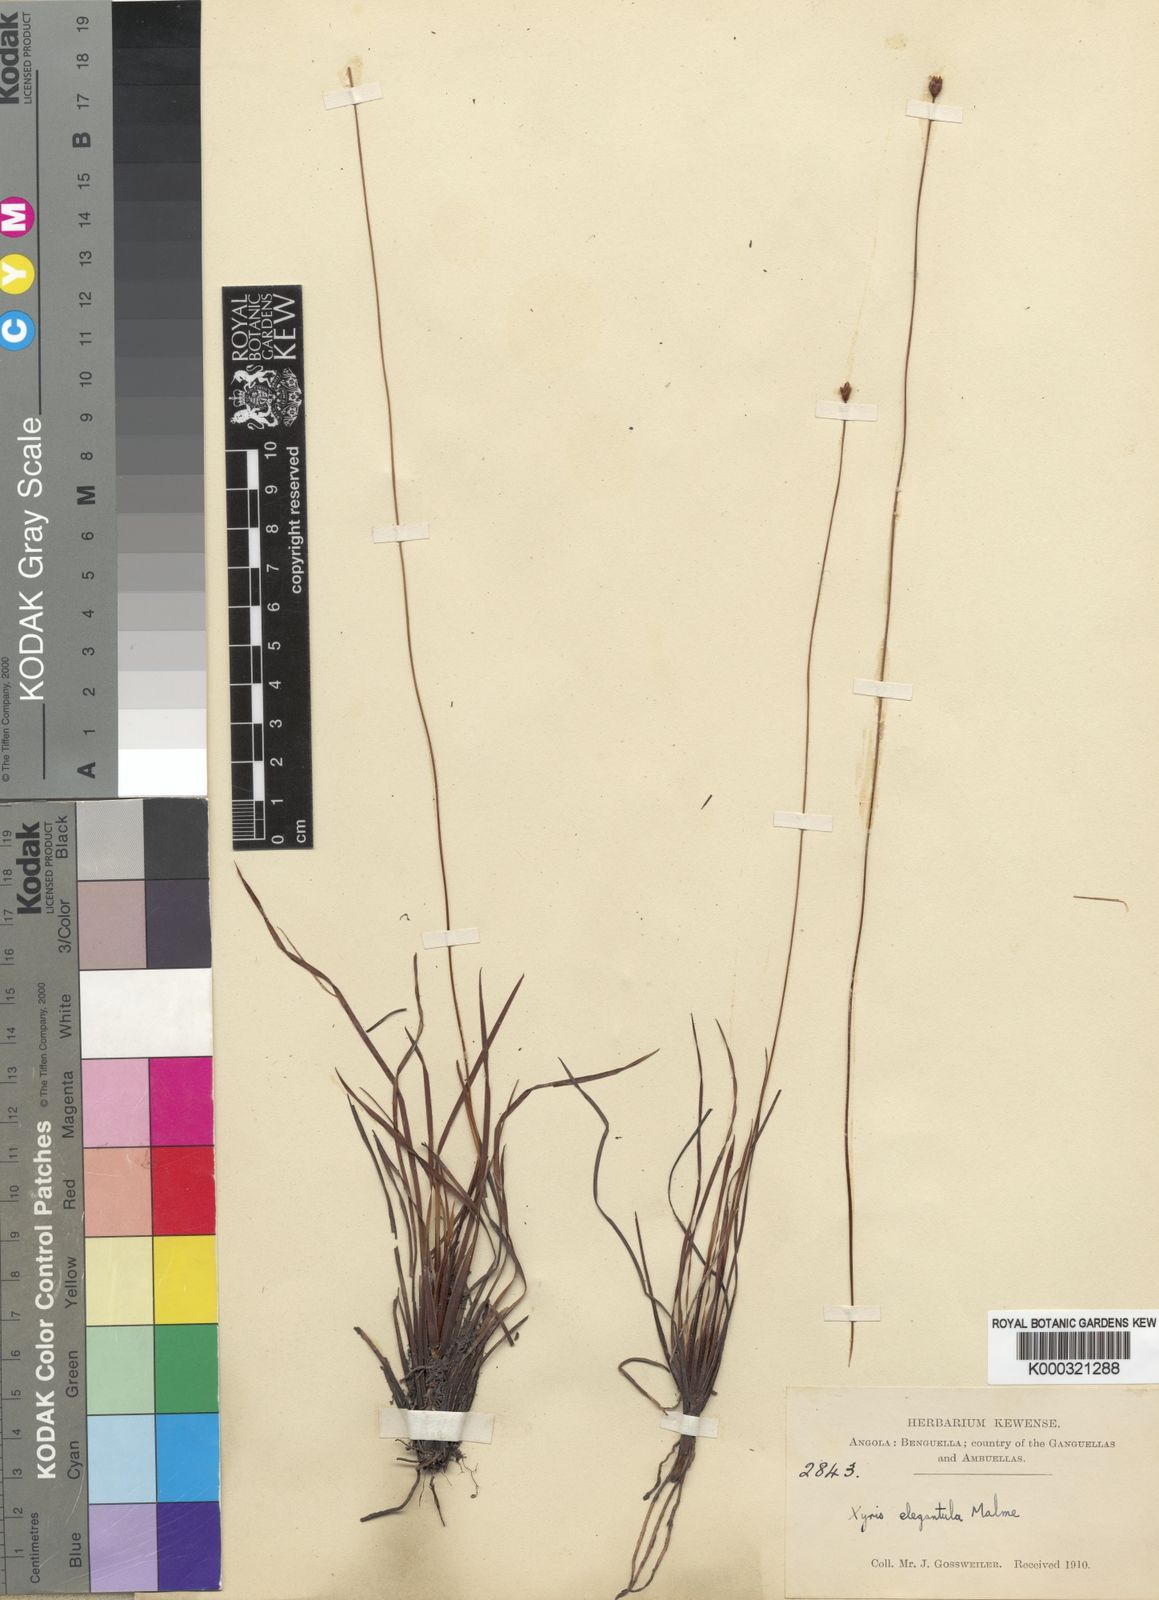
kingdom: Plantae
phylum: Tracheophyta
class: Liliopsida
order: Poales
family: Xyridaceae
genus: Xyris
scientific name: Xyris elegantula
